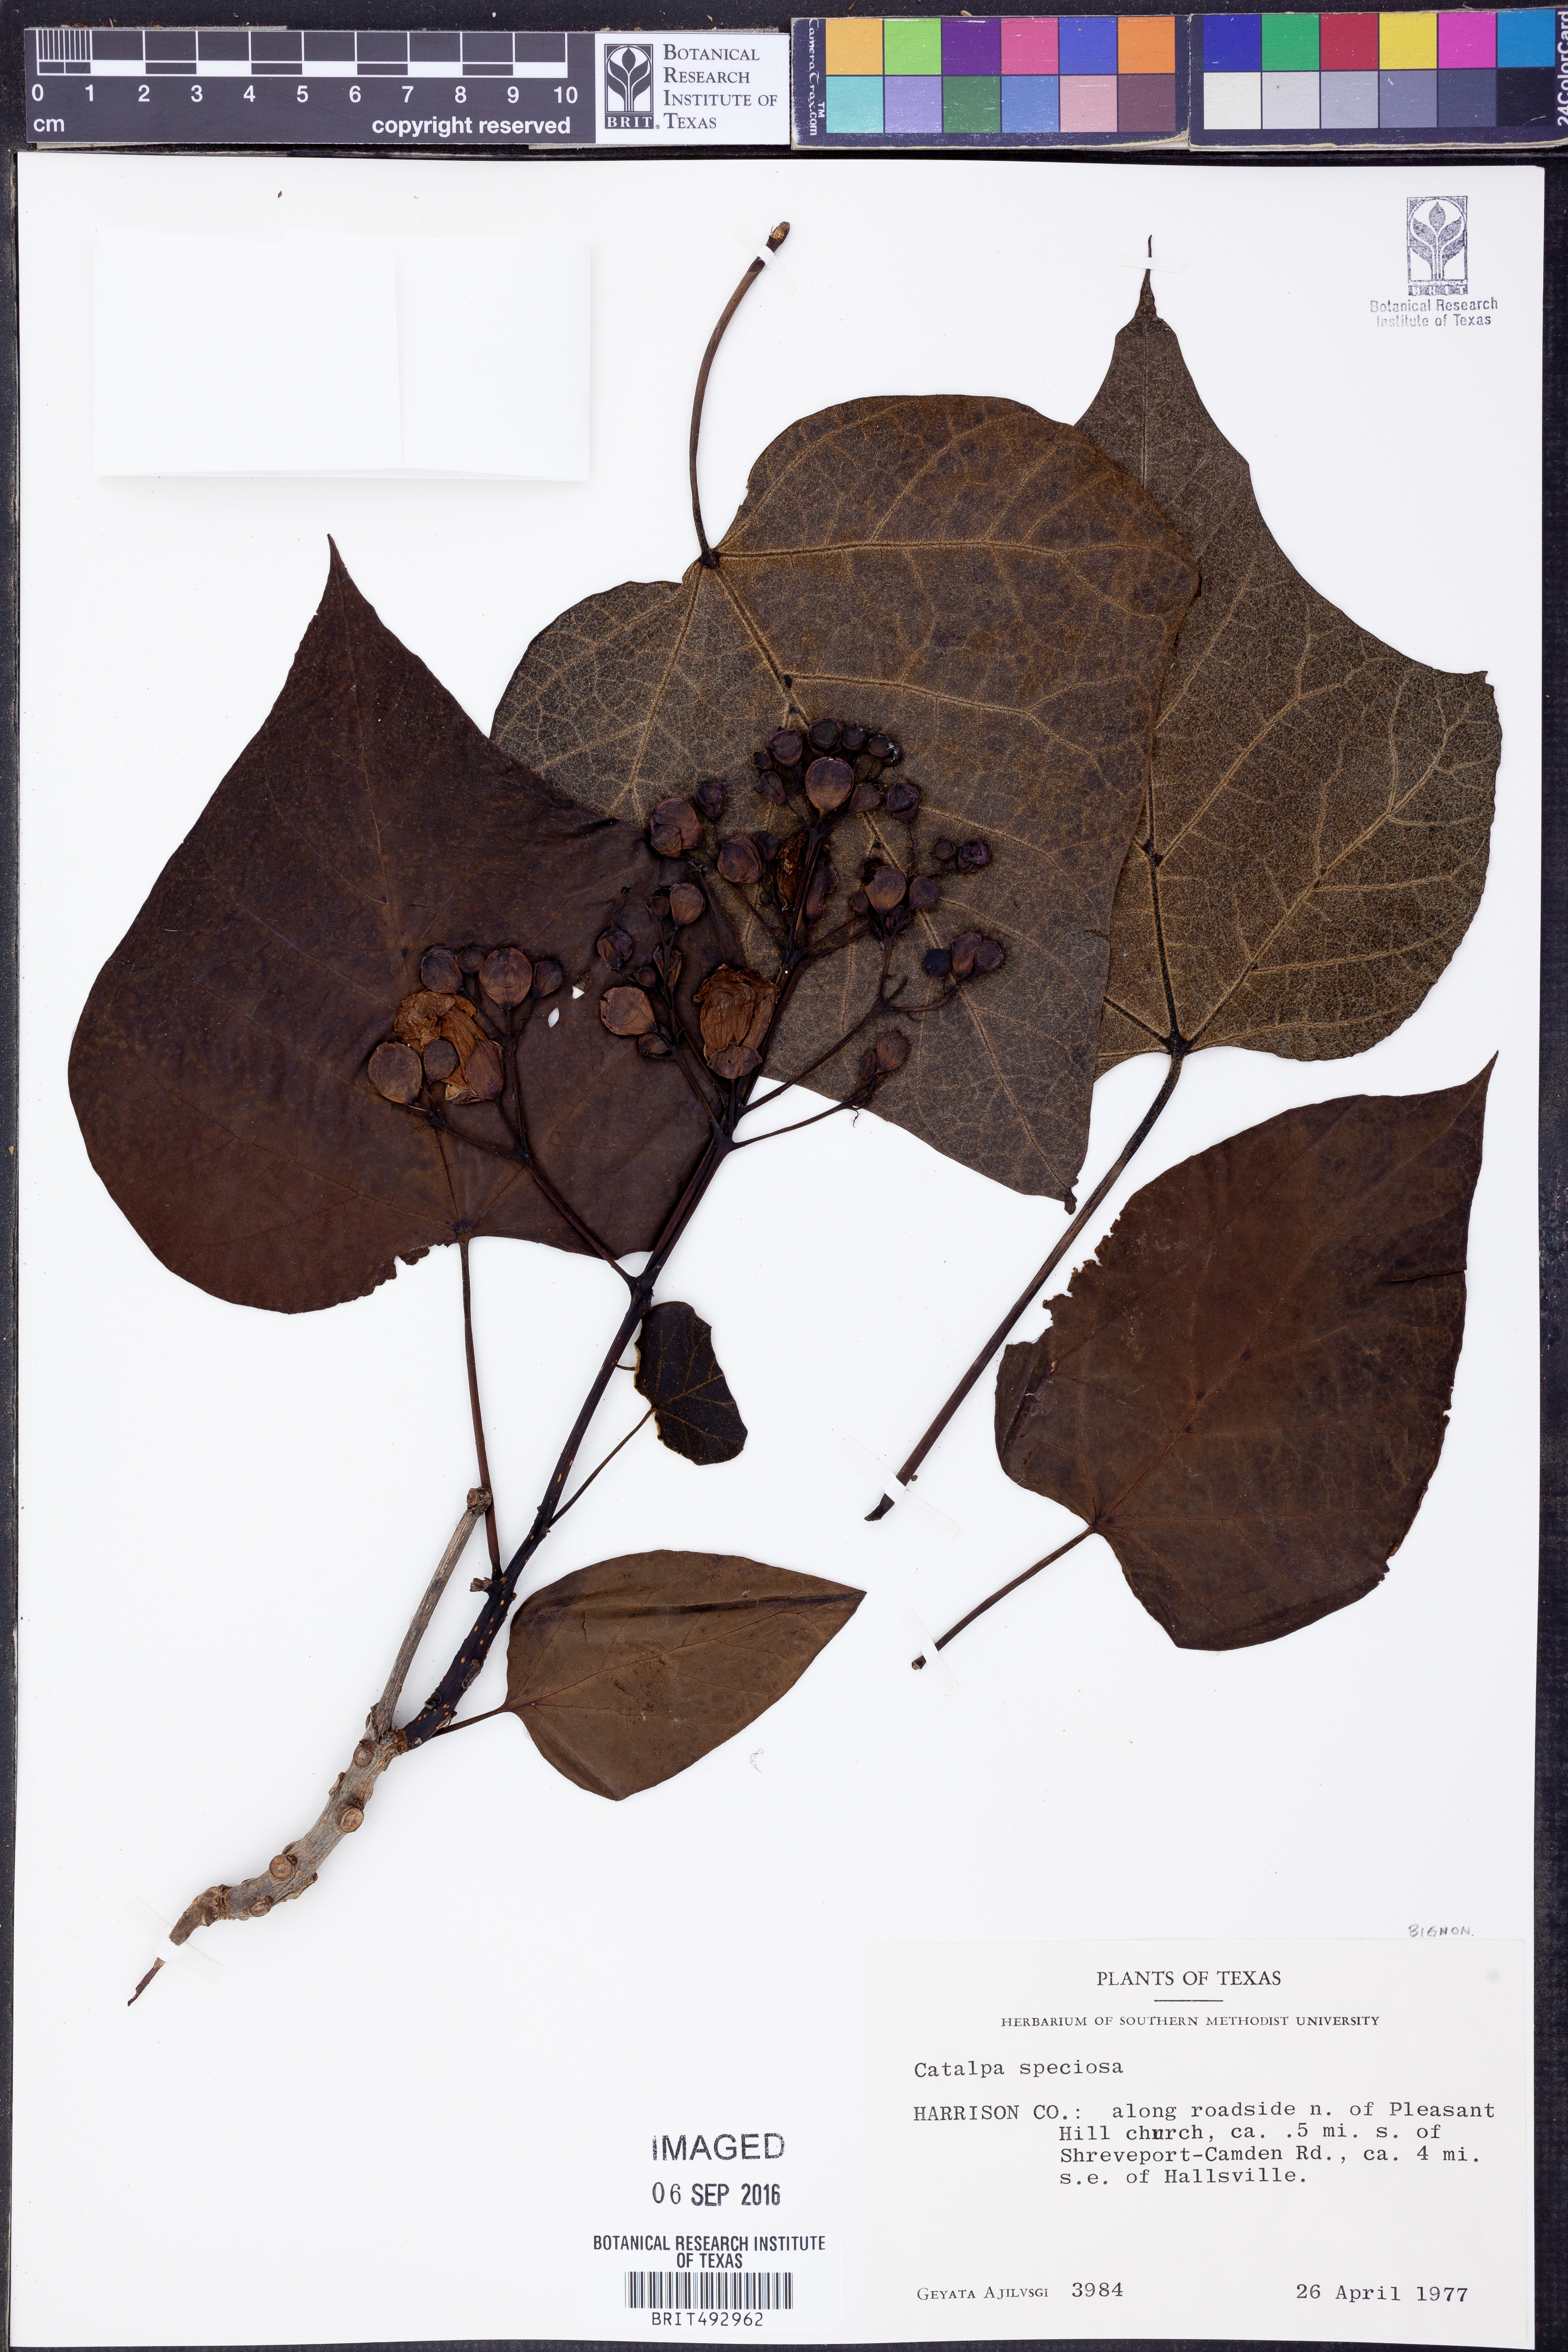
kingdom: Plantae
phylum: Tracheophyta
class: Magnoliopsida
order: Lamiales
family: Bignoniaceae
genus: Catalpa
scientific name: Catalpa speciosa
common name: Northern catalpa
